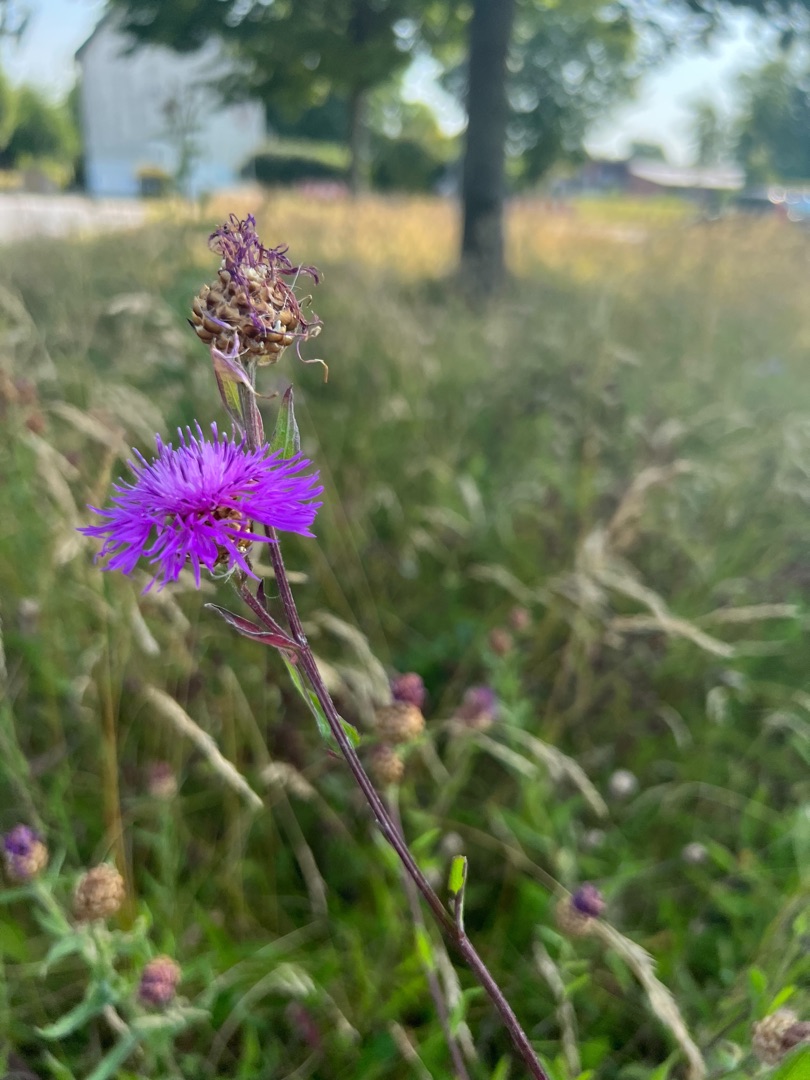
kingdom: Plantae
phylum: Tracheophyta
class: Magnoliopsida
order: Asterales
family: Asteraceae
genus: Centaurea
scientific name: Centaurea jacea
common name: Almindelig knopurt
